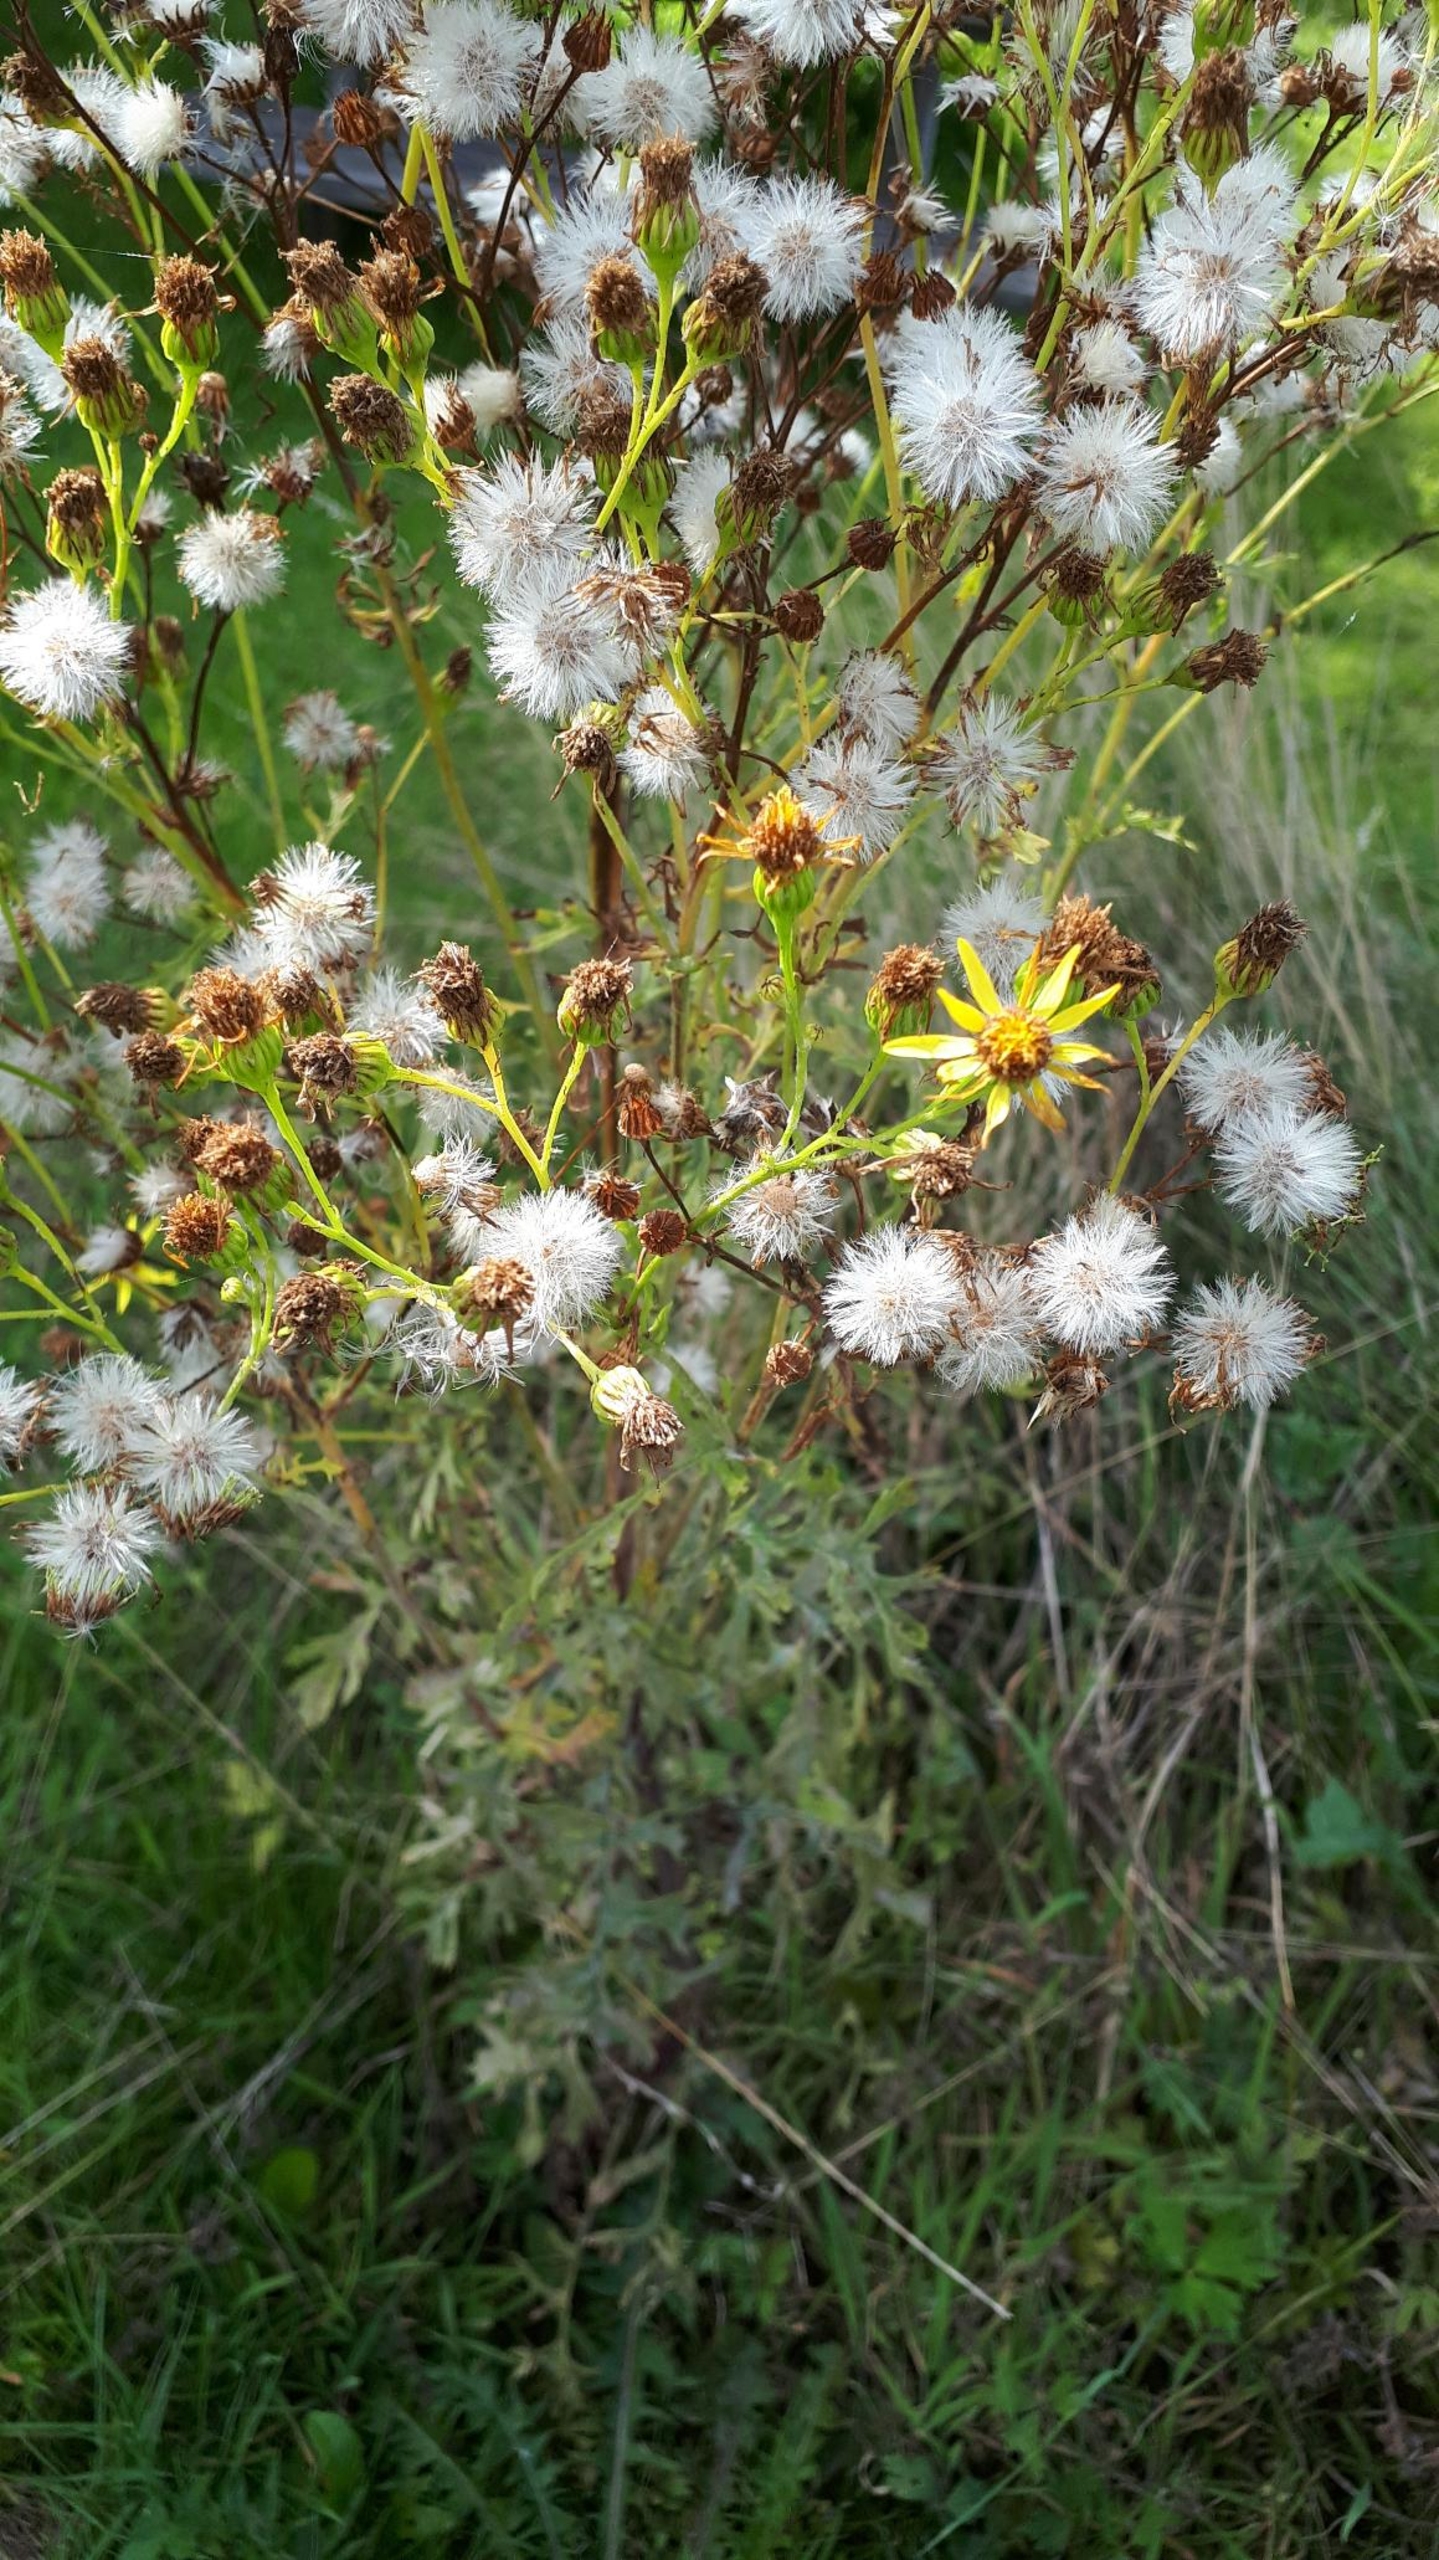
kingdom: Plantae
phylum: Tracheophyta
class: Magnoliopsida
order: Asterales
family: Asteraceae
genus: Jacobaea
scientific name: Jacobaea vulgaris
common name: Eng-brandbæger
